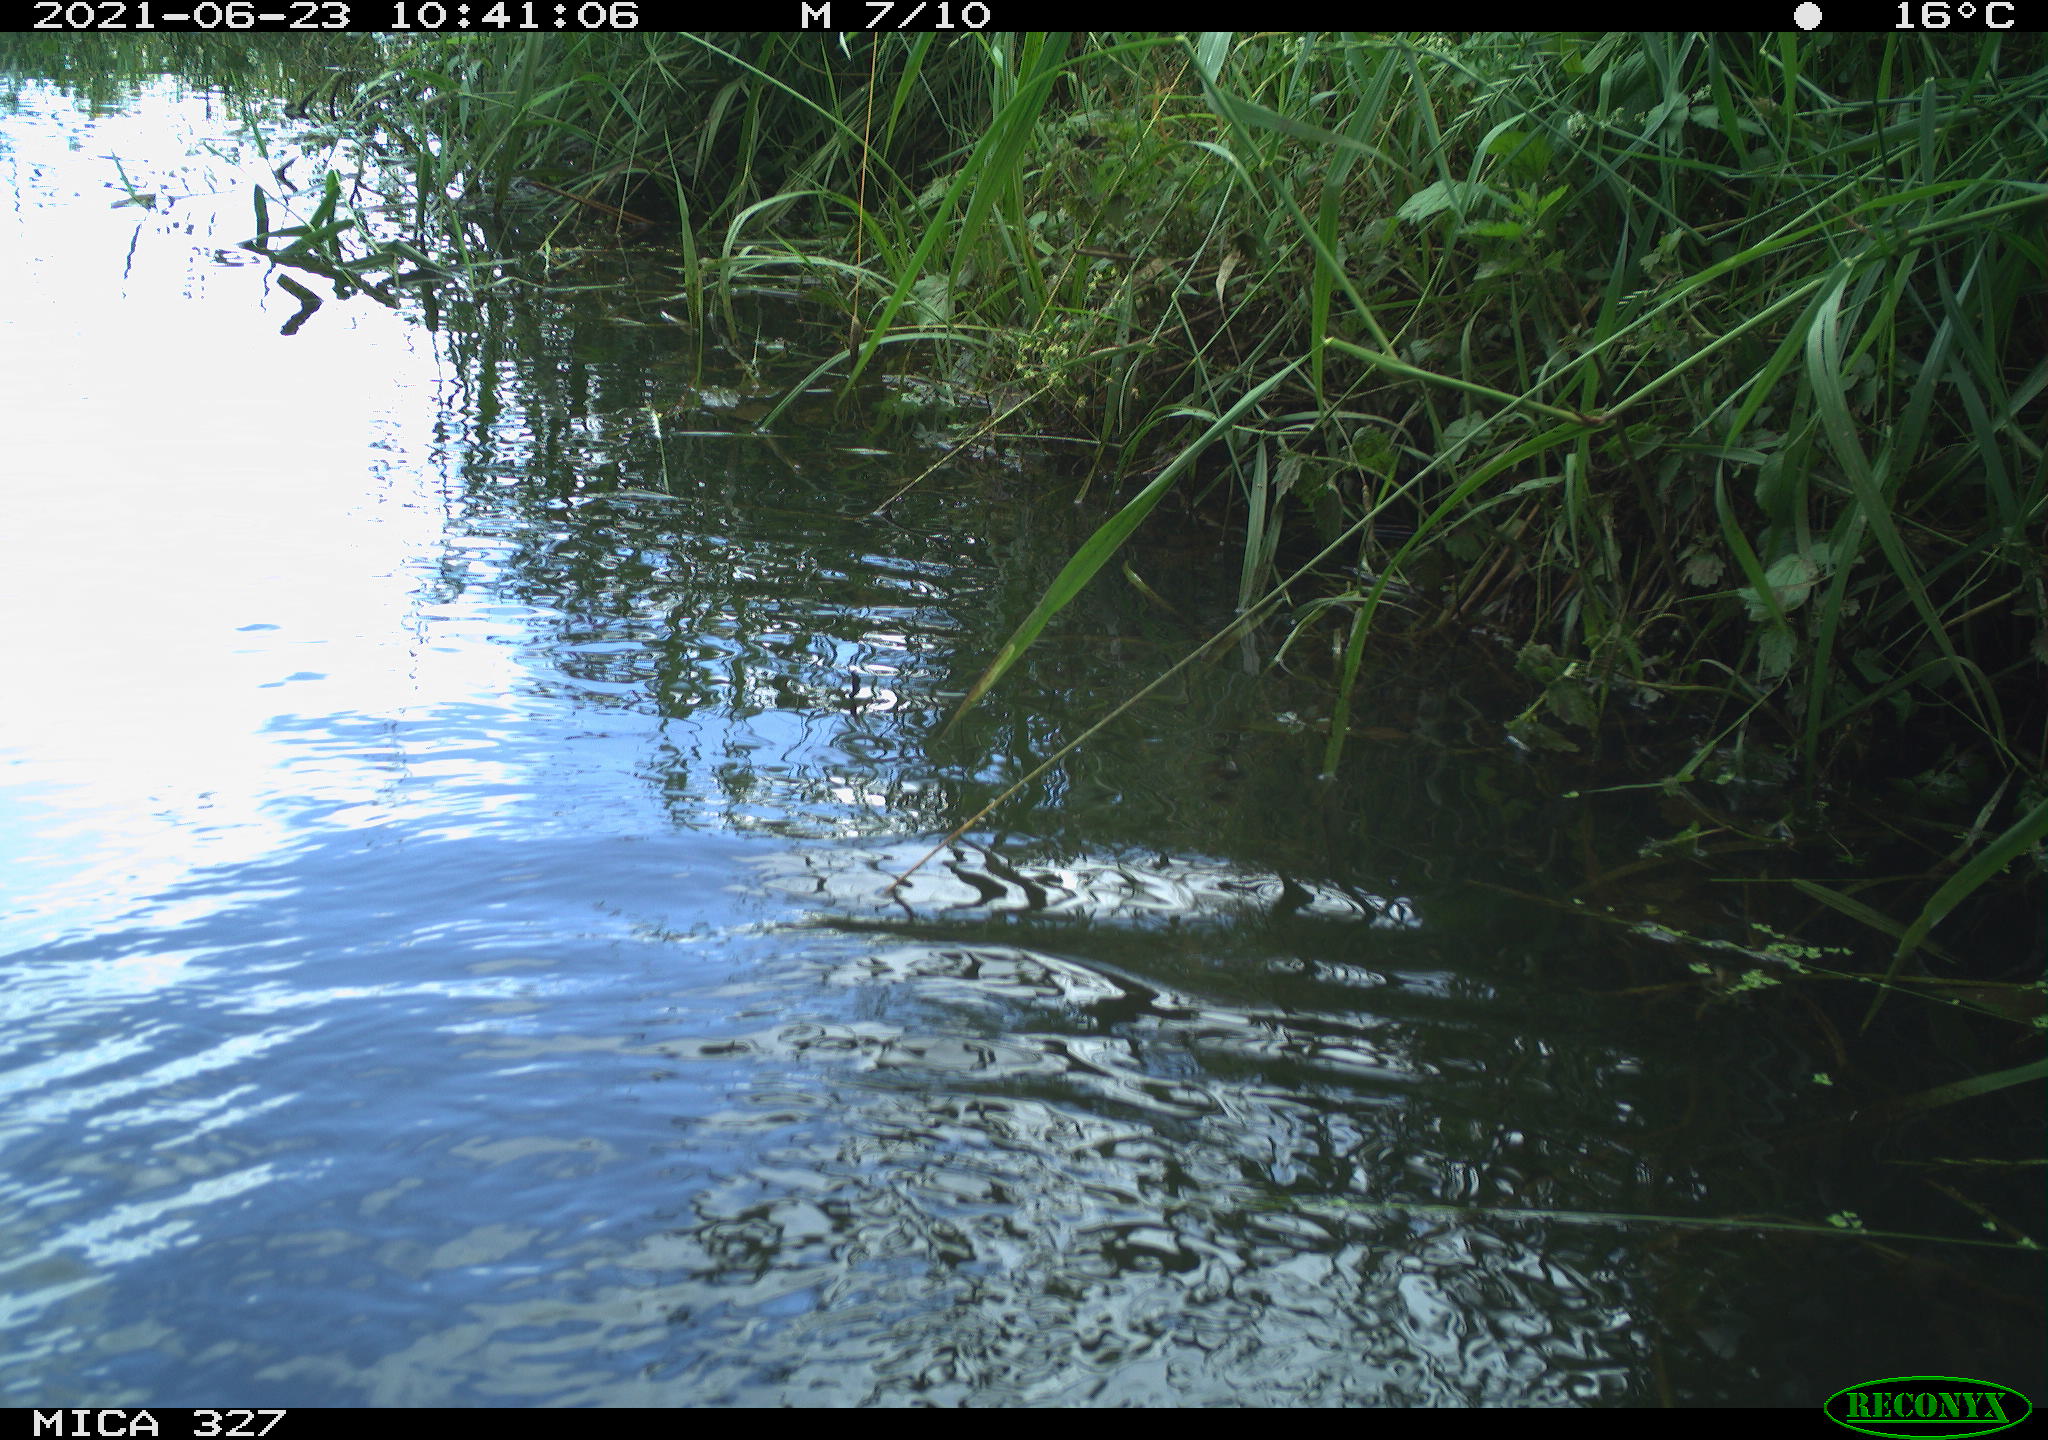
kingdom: Animalia
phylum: Chordata
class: Mammalia
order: Rodentia
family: Cricetidae
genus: Ondatra
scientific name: Ondatra zibethicus
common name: Muskrat
